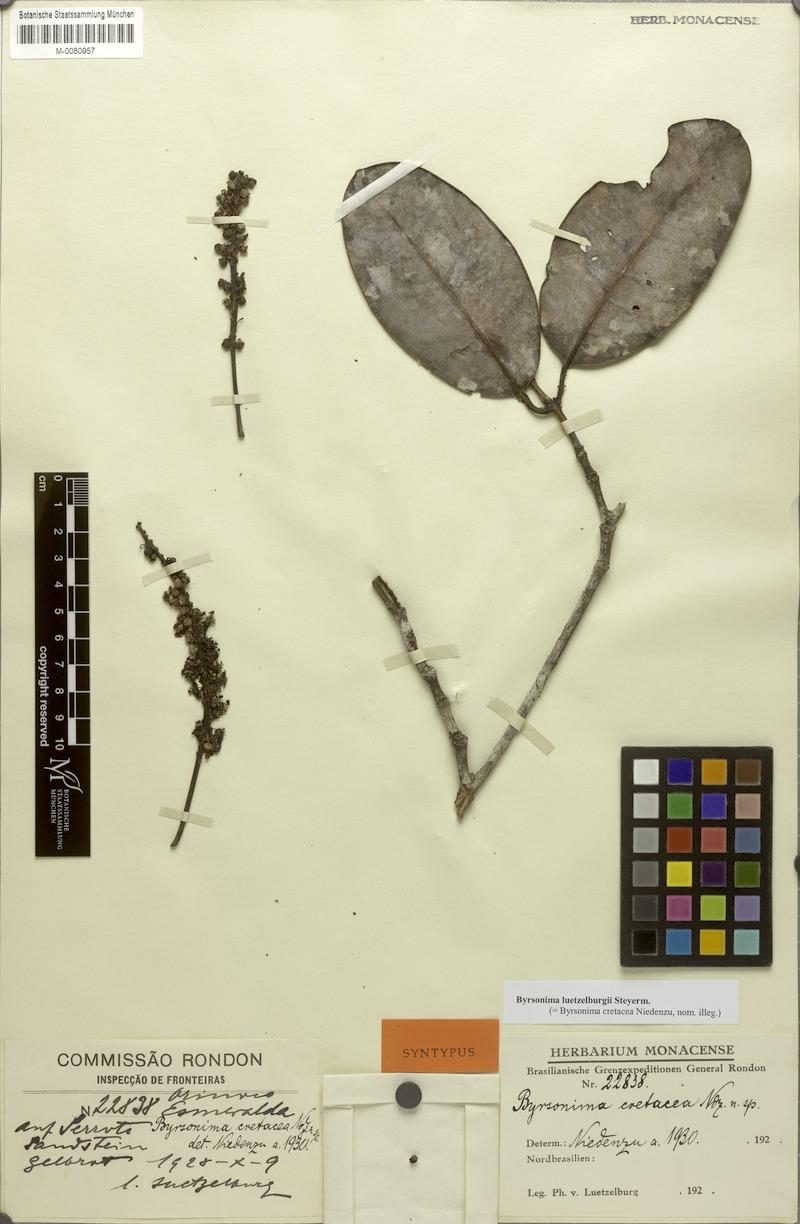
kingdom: Plantae
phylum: Tracheophyta
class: Magnoliopsida
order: Malpighiales
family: Malpighiaceae
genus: Byrsonima
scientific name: Byrsonima luetzelburgii
